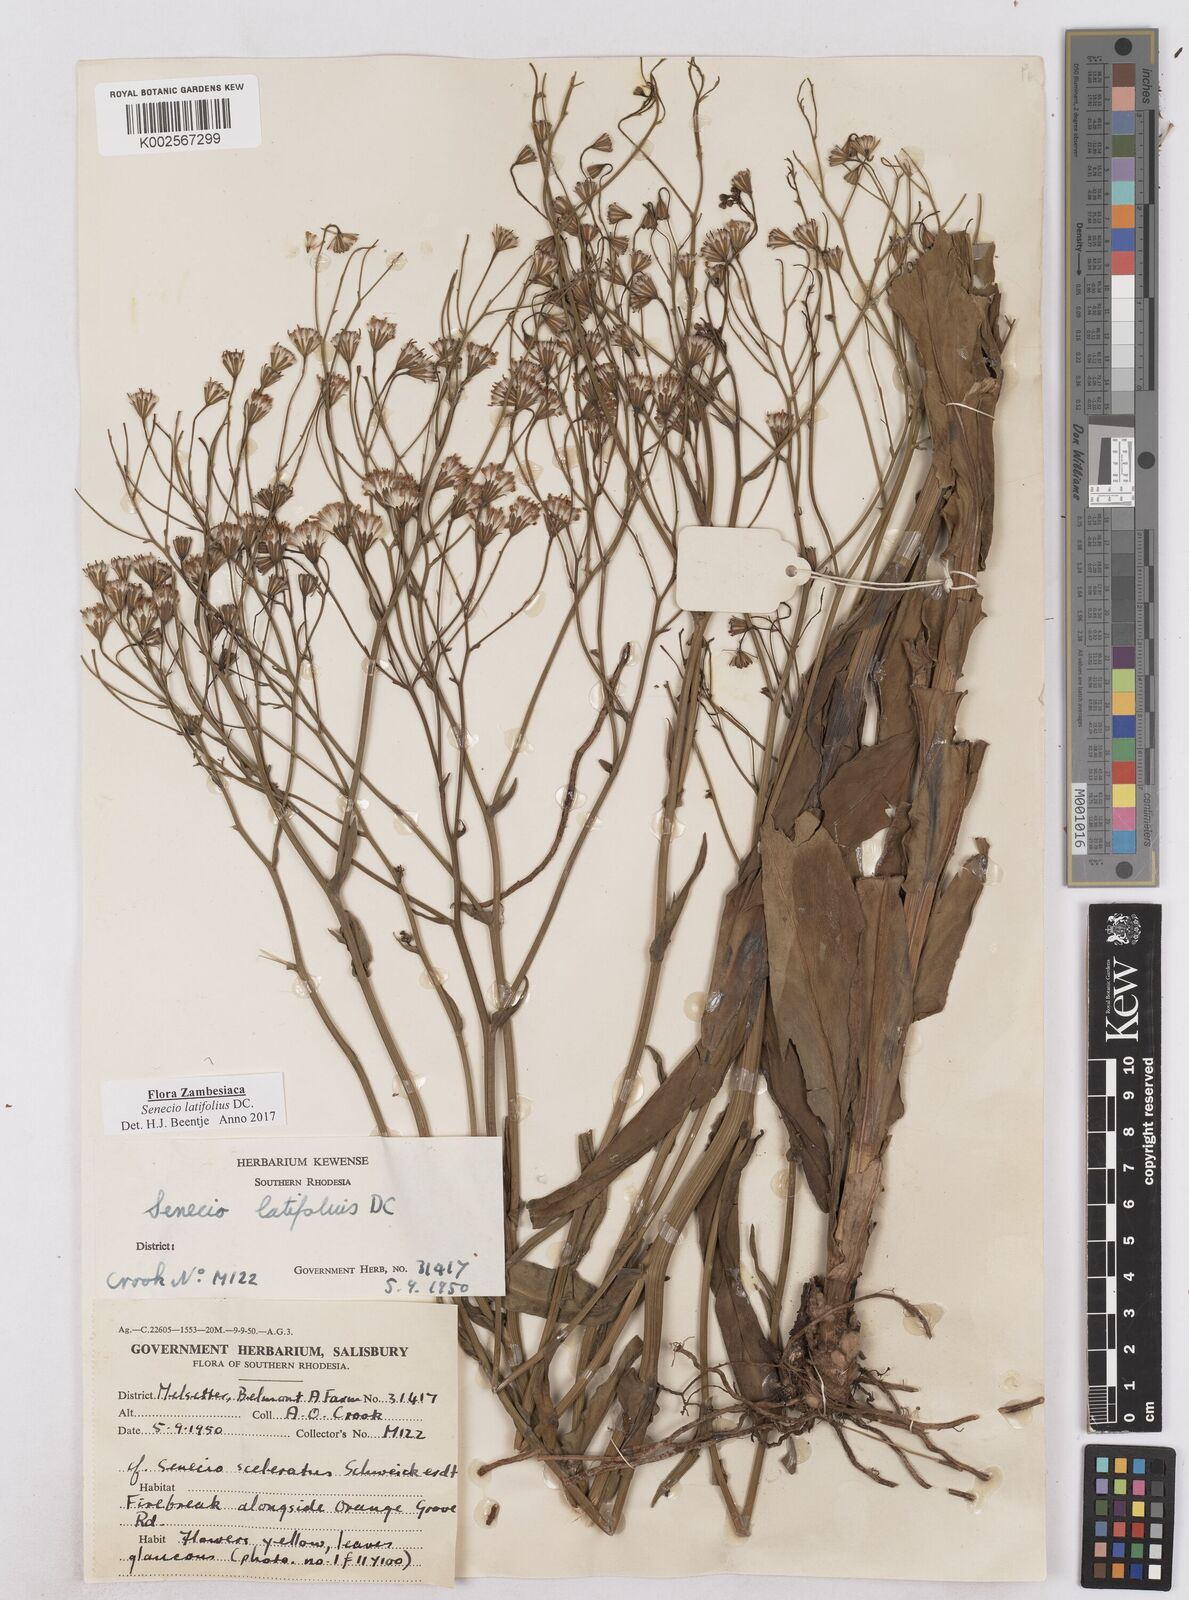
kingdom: Plantae
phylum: Tracheophyta
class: Magnoliopsida
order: Asterales
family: Asteraceae
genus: Senecio
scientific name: Senecio latifolius
